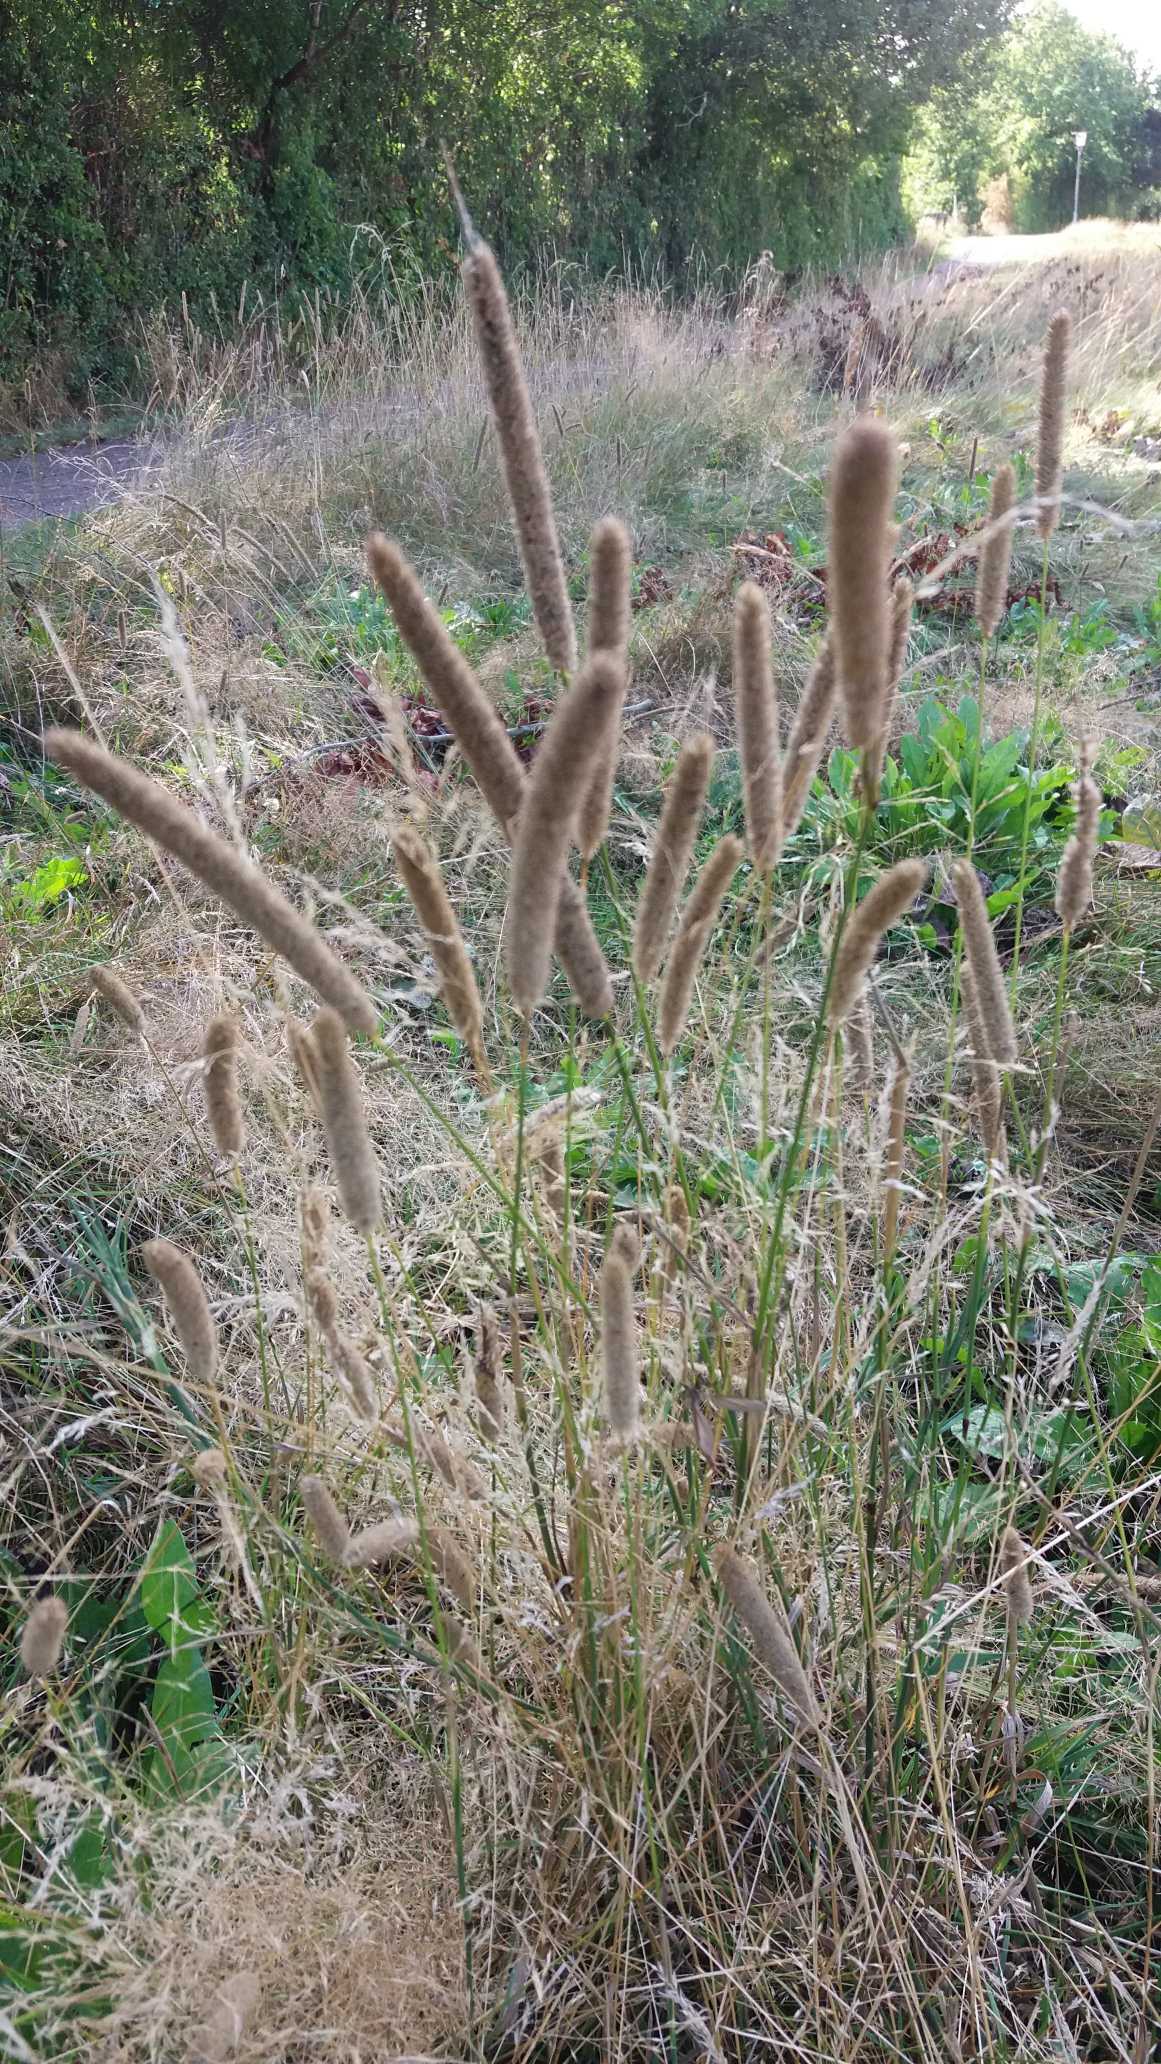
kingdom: Plantae
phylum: Tracheophyta
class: Liliopsida
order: Poales
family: Poaceae
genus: Phleum
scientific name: Phleum
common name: Rottehaleslægten
